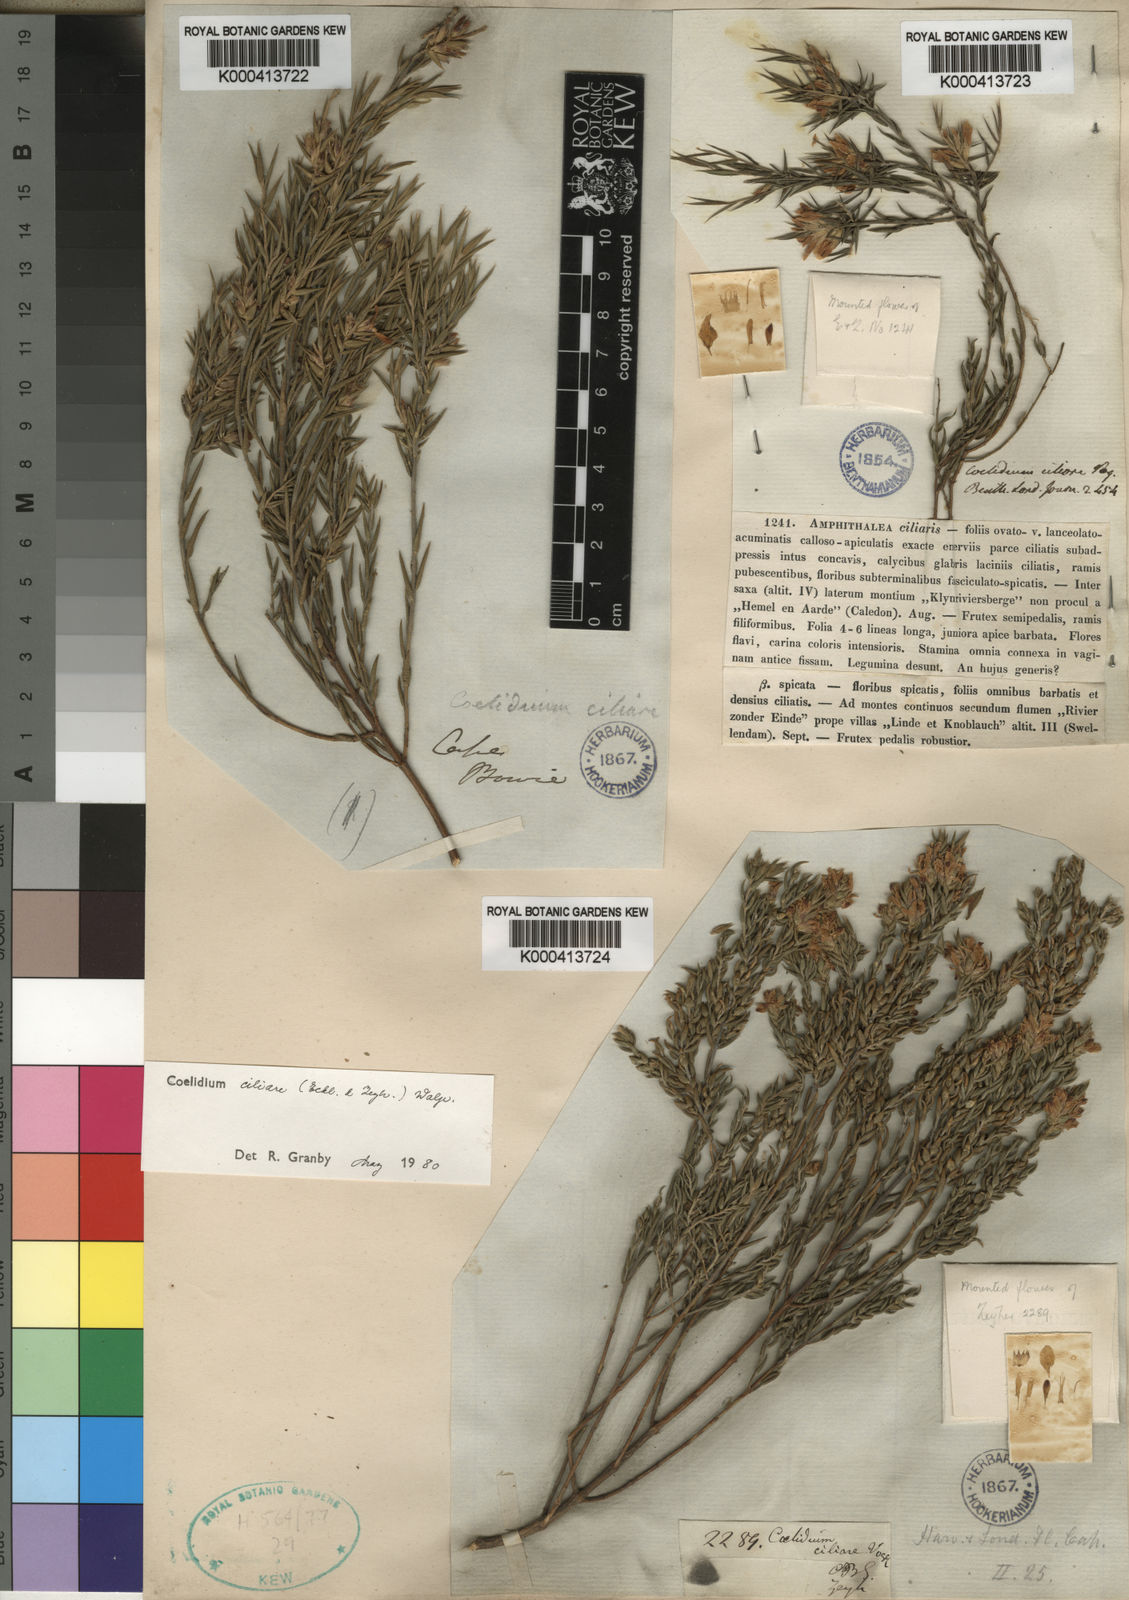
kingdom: Plantae
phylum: Tracheophyta
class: Magnoliopsida
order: Fabales
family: Fabaceae
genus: Amphithalea
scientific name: Amphithalea ciliaris
